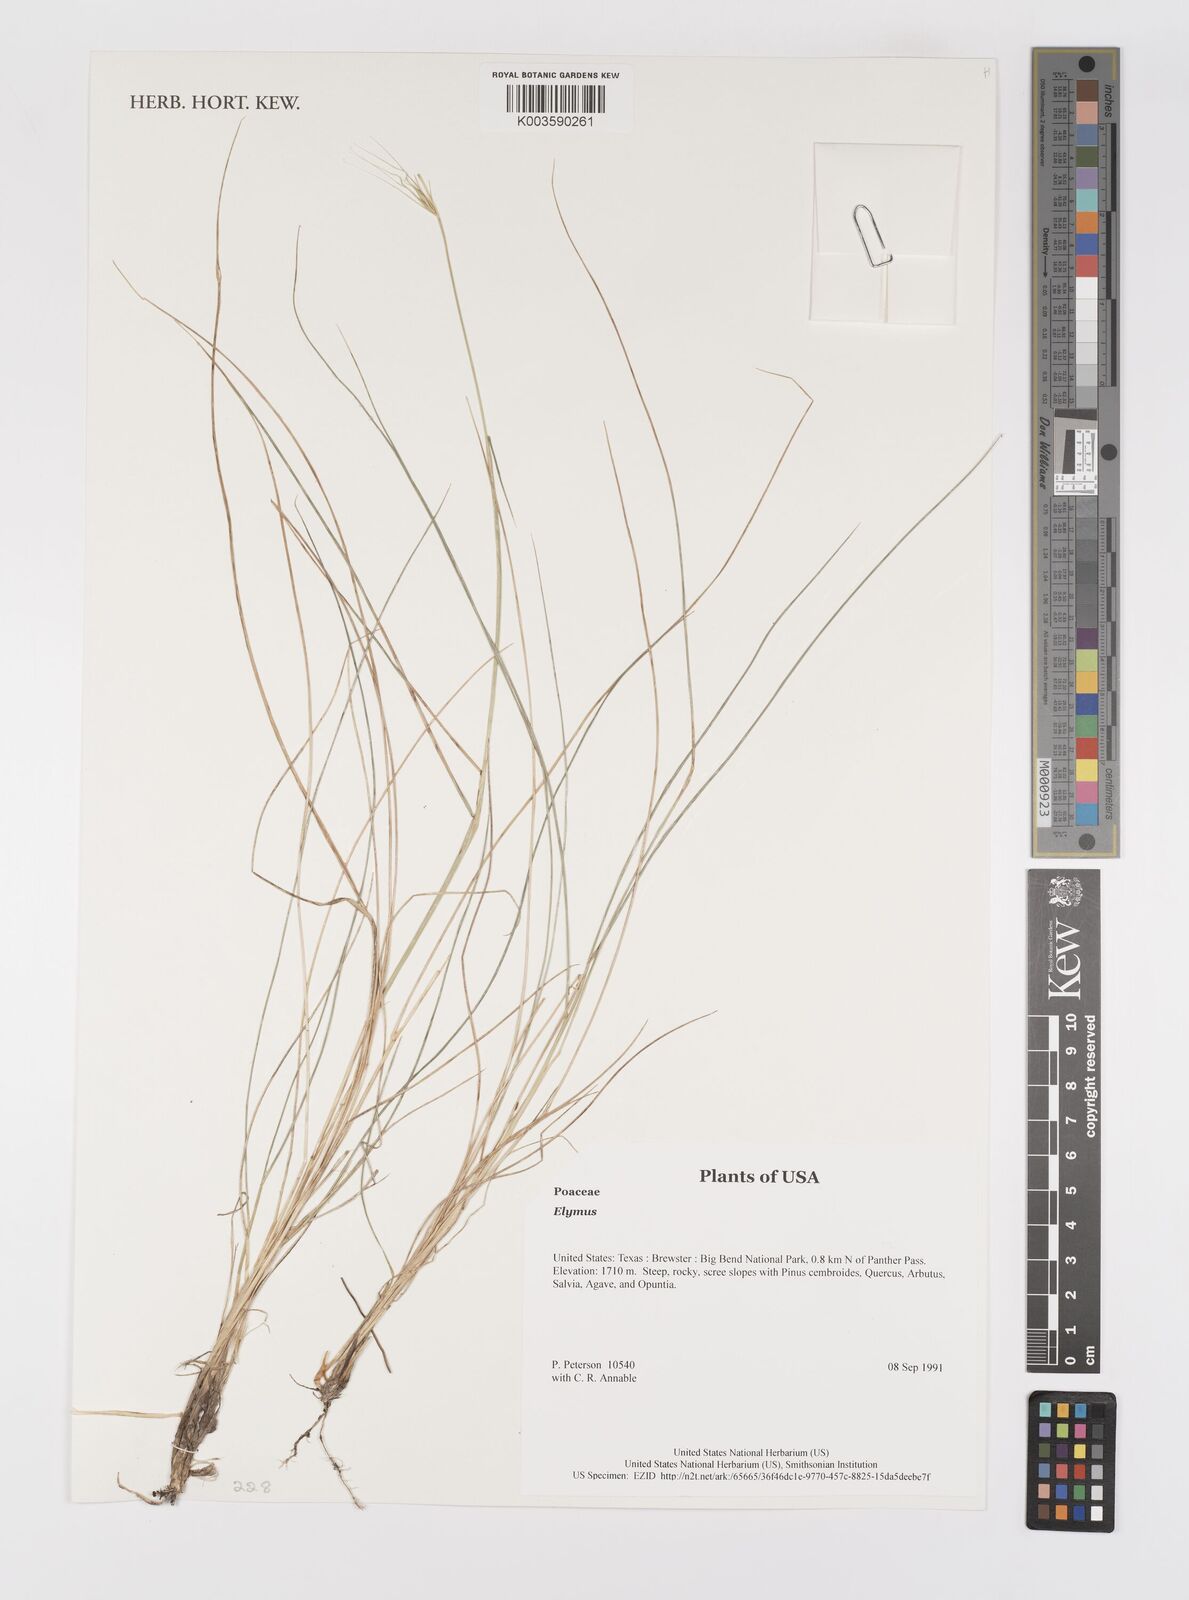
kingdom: Plantae
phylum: Tracheophyta
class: Liliopsida
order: Poales
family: Poaceae
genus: Elymus
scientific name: Elymus
